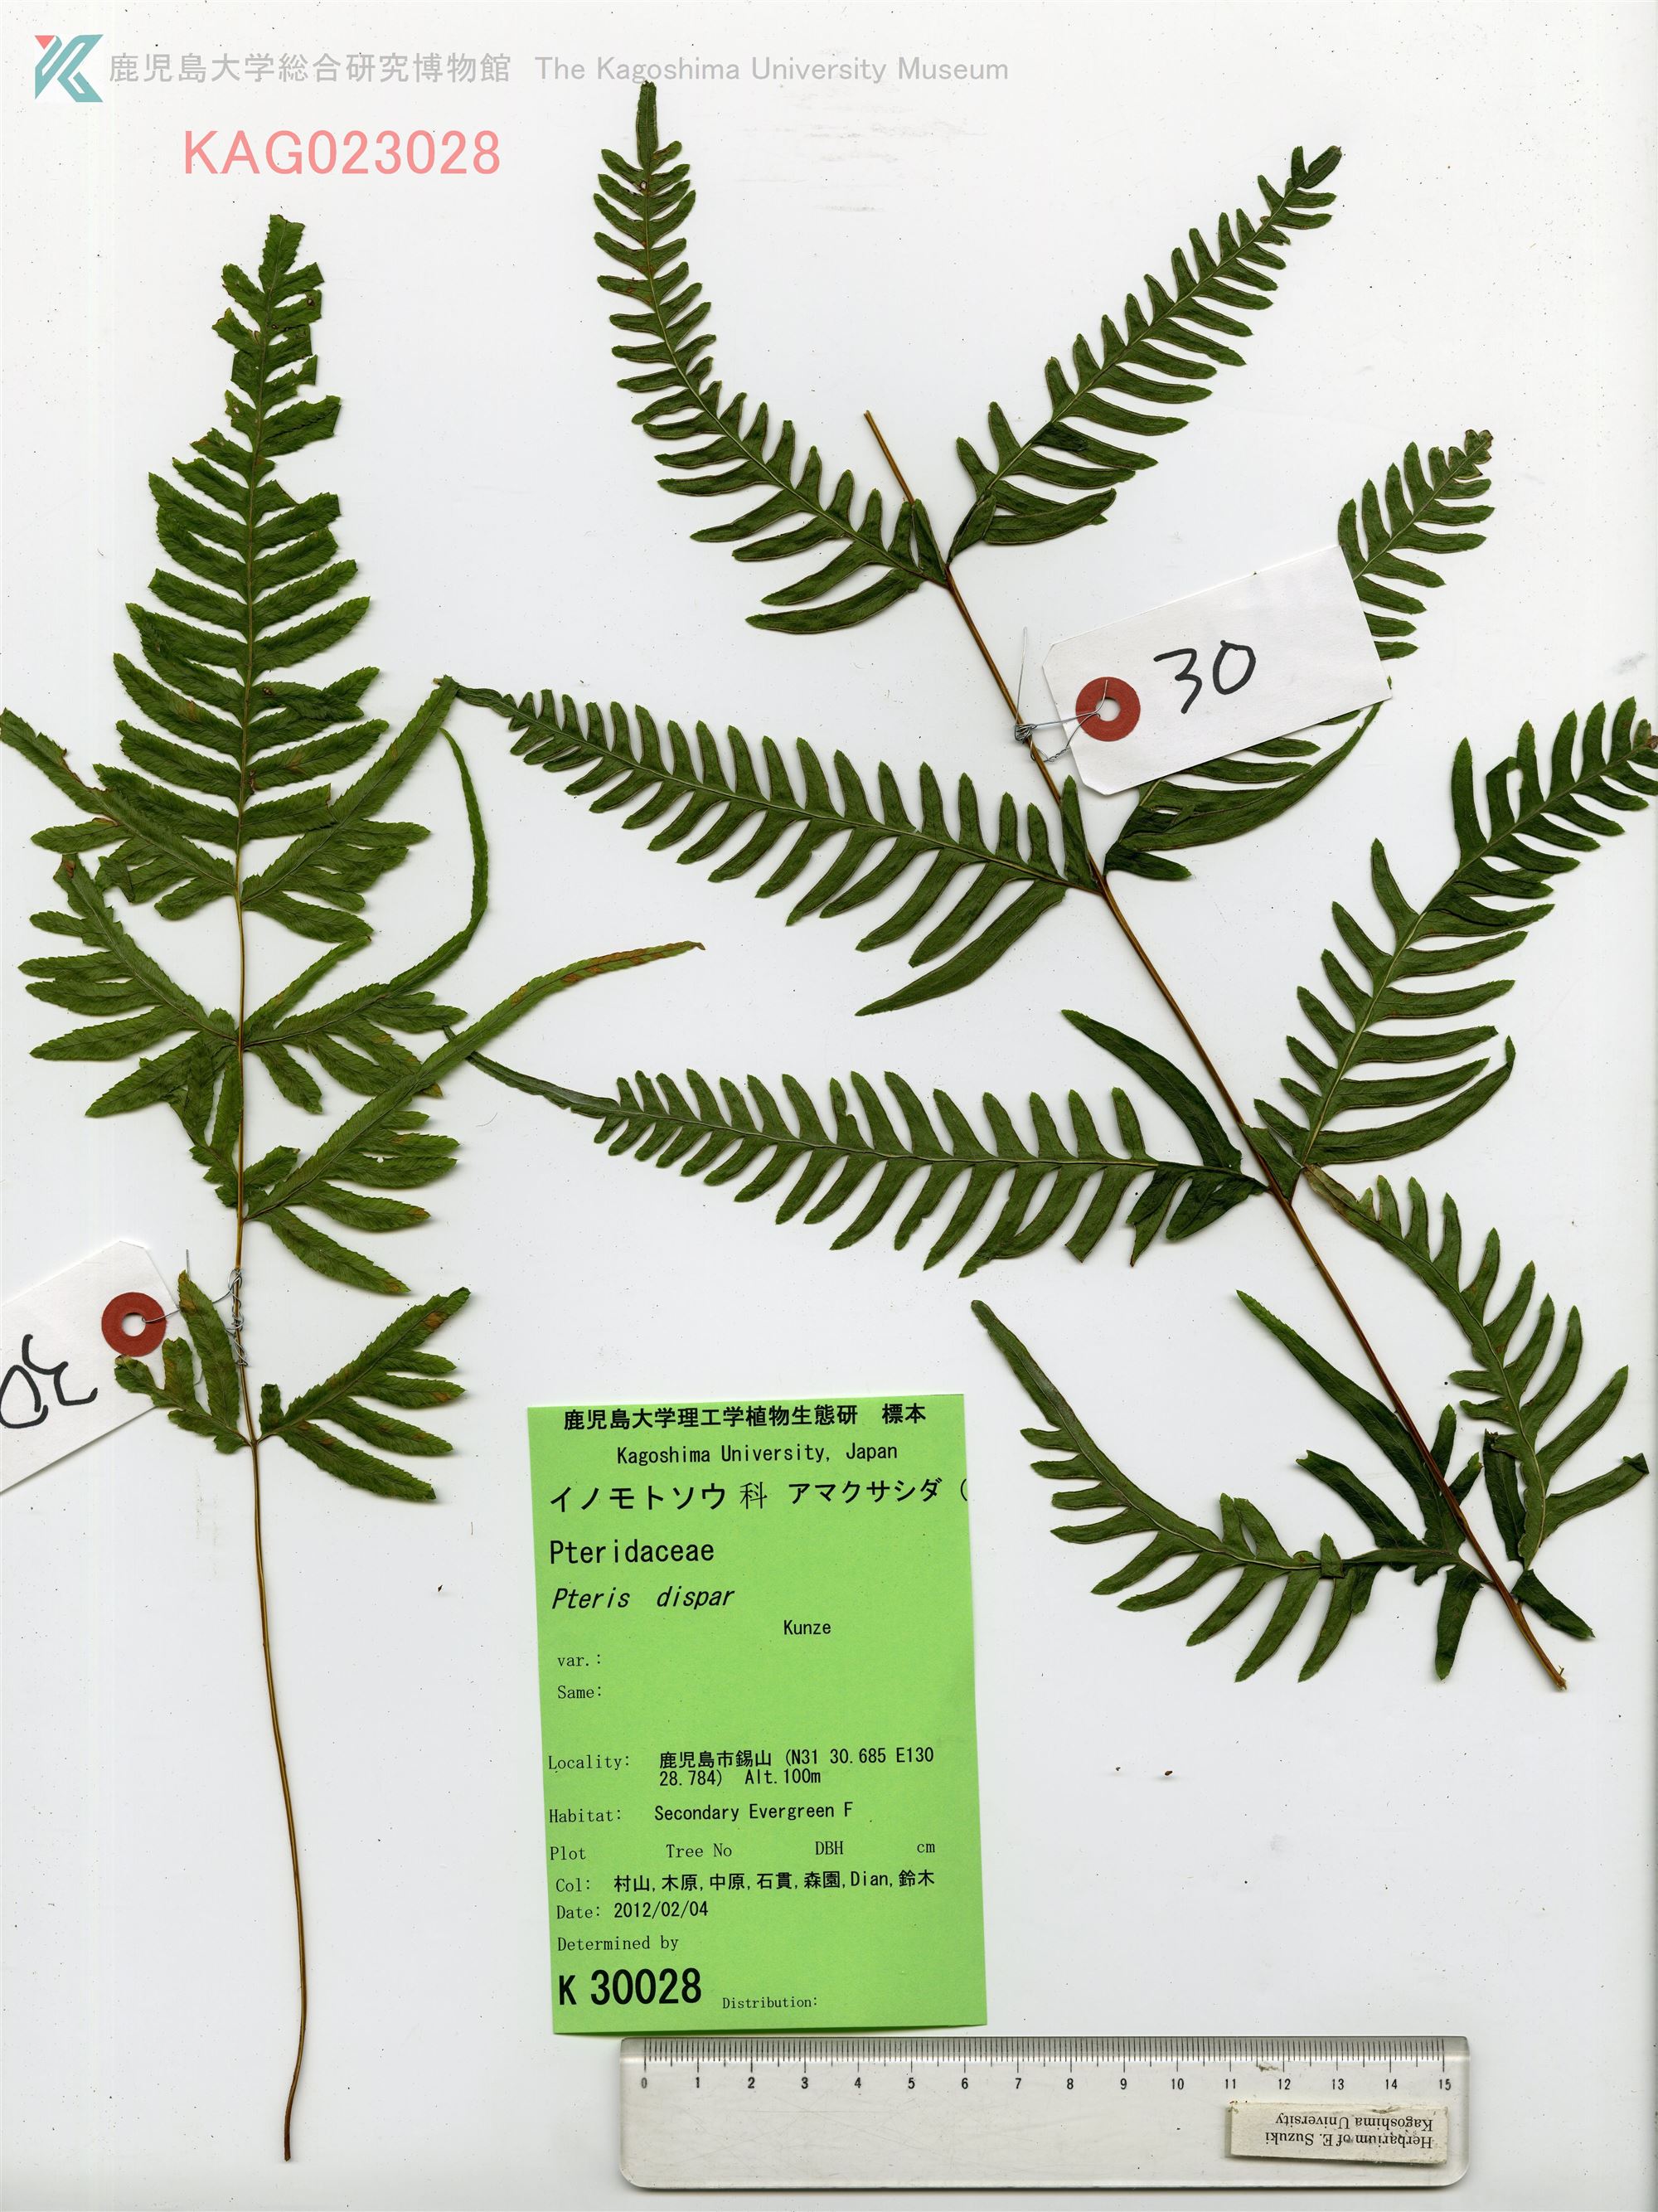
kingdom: Plantae
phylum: Tracheophyta
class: Polypodiopsida
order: Polypodiales
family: Pteridaceae
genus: Pteris
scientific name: Pteris dispar
